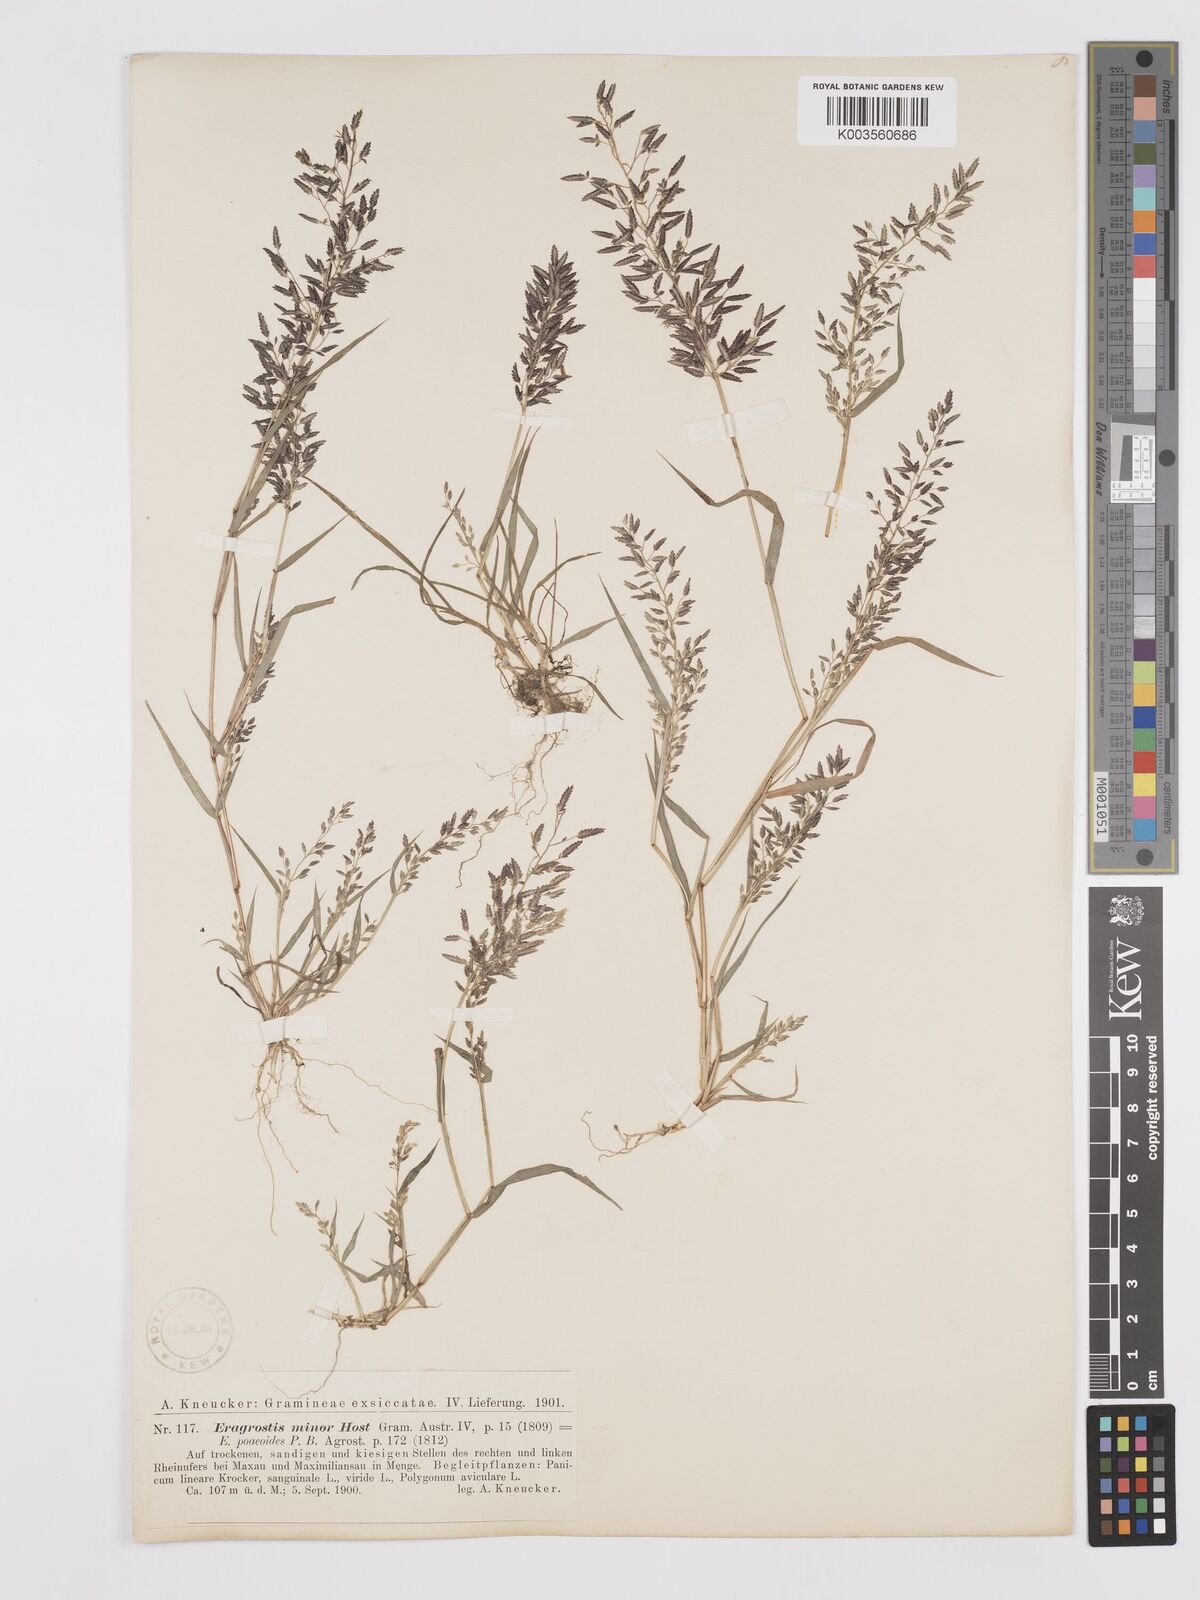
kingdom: Plantae
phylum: Tracheophyta
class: Liliopsida
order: Poales
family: Poaceae
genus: Eragrostis
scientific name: Eragrostis minor
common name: Small love-grass
